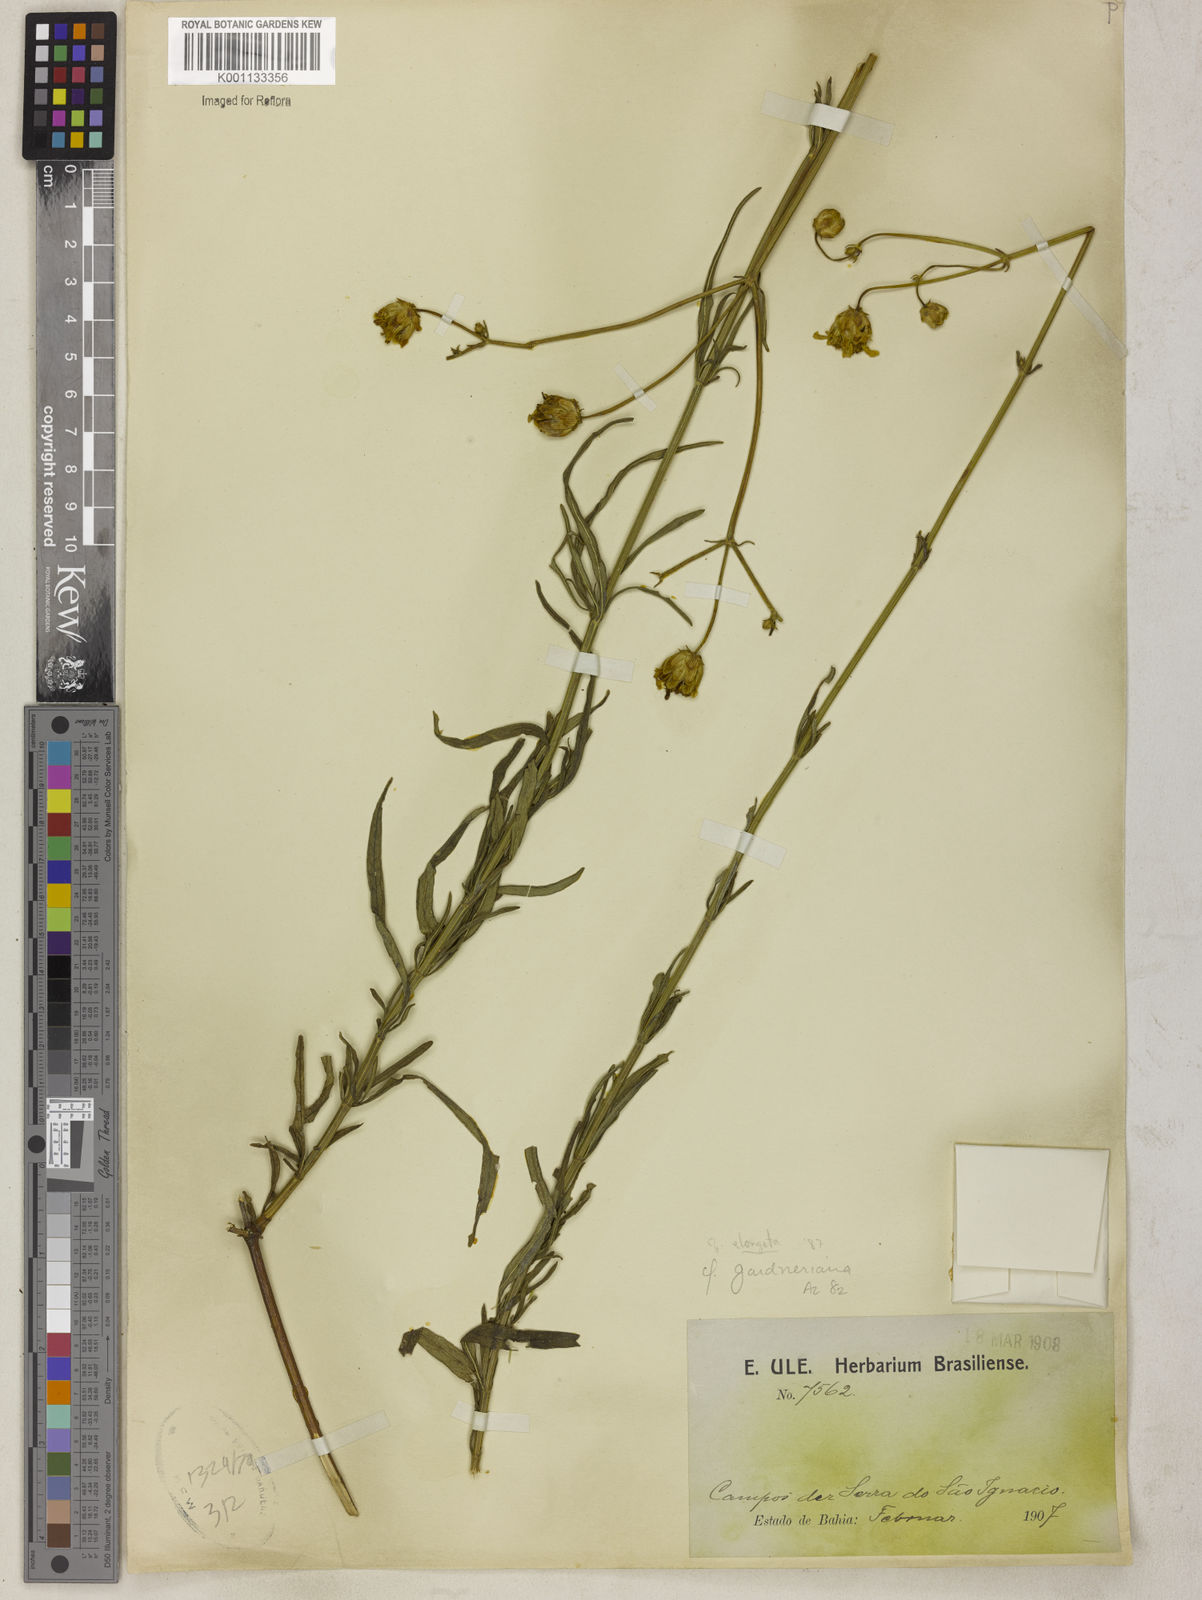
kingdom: Plantae
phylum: Tracheophyta
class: Magnoliopsida
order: Asterales
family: Asteraceae
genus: Calea
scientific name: Calea elongata
